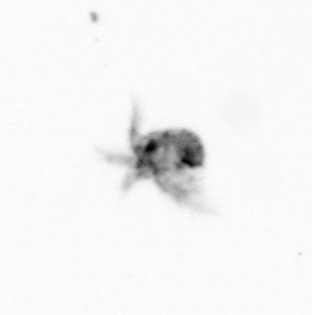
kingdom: Animalia
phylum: Arthropoda
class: Copepoda
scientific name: Copepoda
